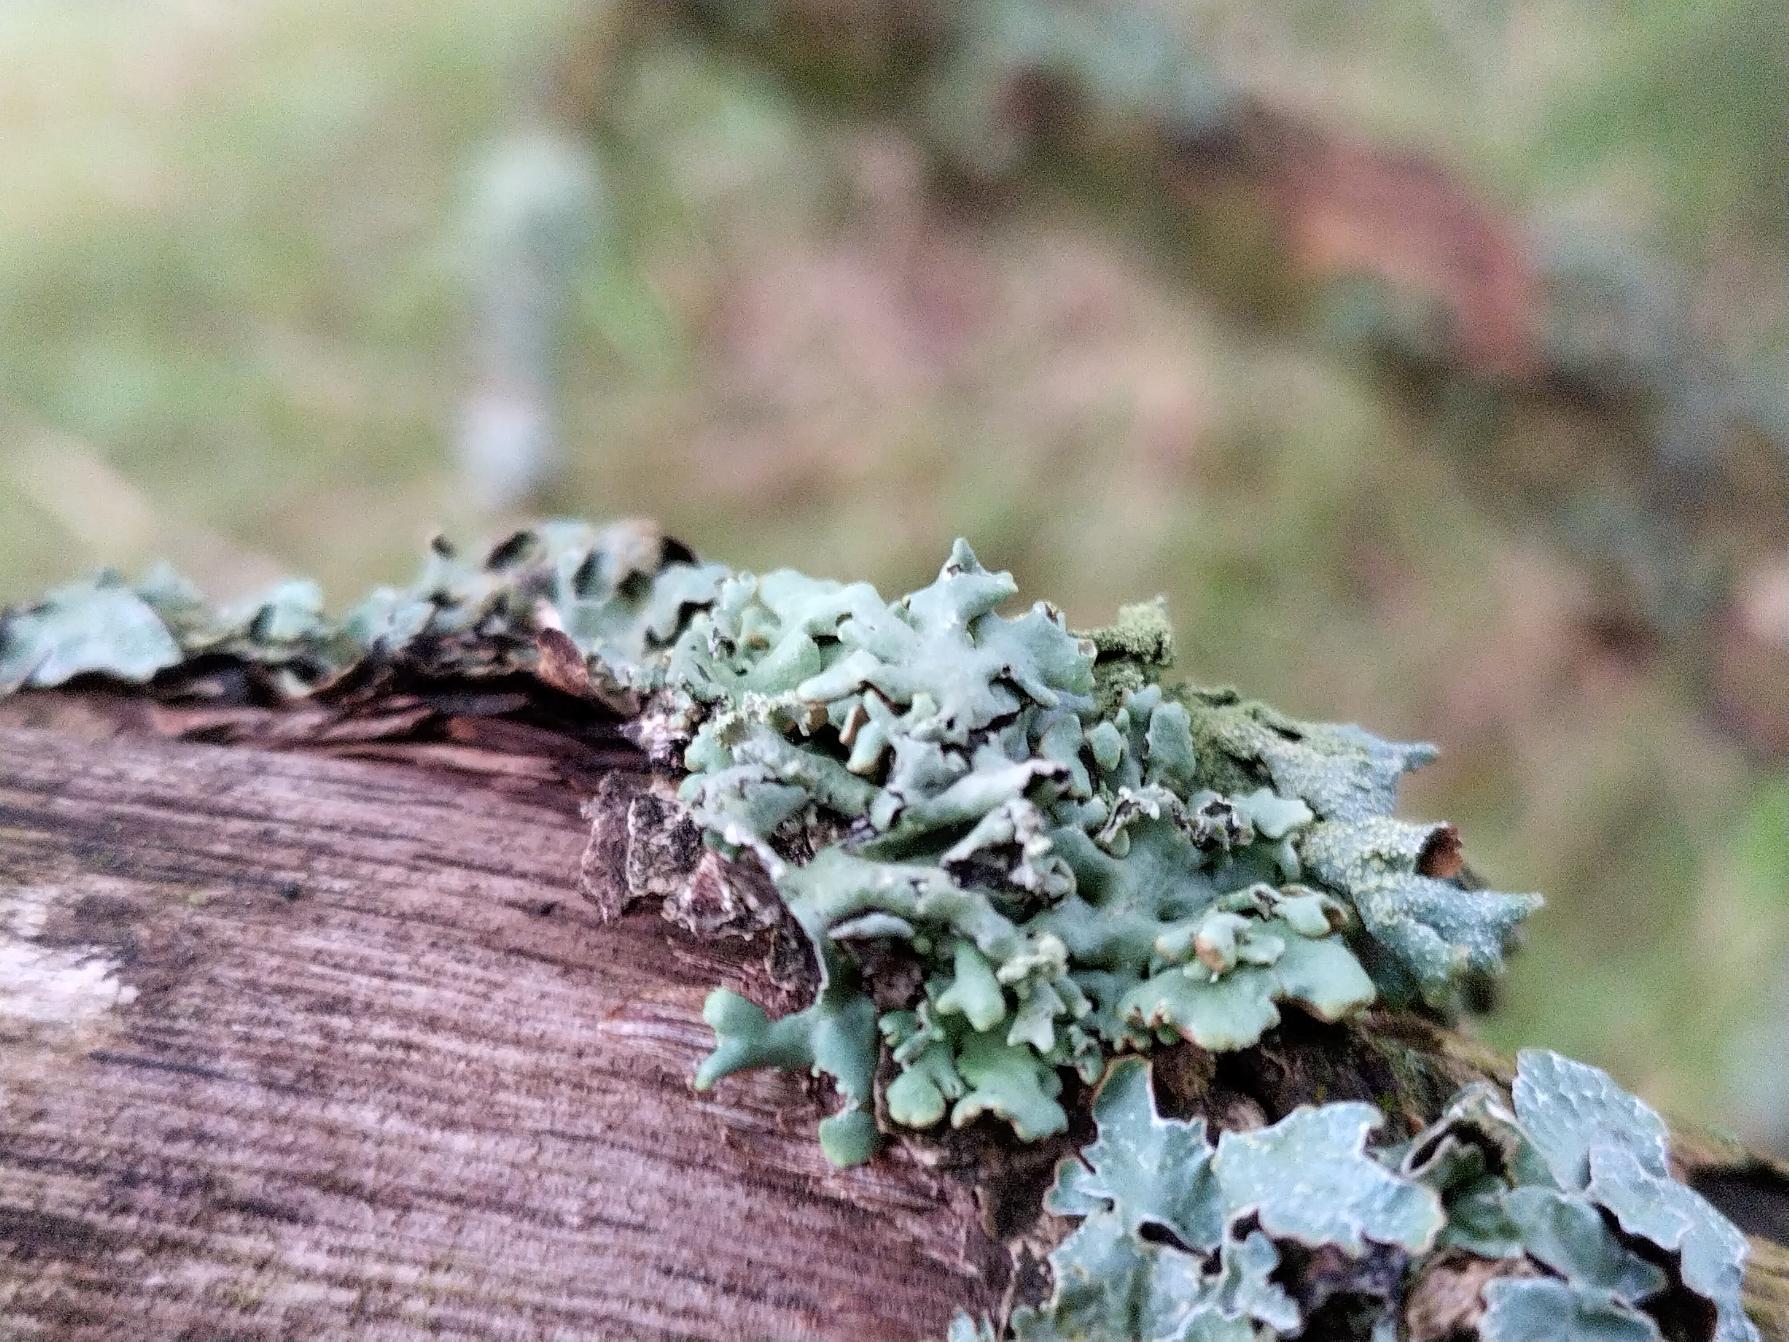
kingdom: Fungi
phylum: Ascomycota
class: Lecanoromycetes
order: Lecanorales
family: Parmeliaceae
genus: Hypogymnia
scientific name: Hypogymnia physodes
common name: Almindelig kvistlav
